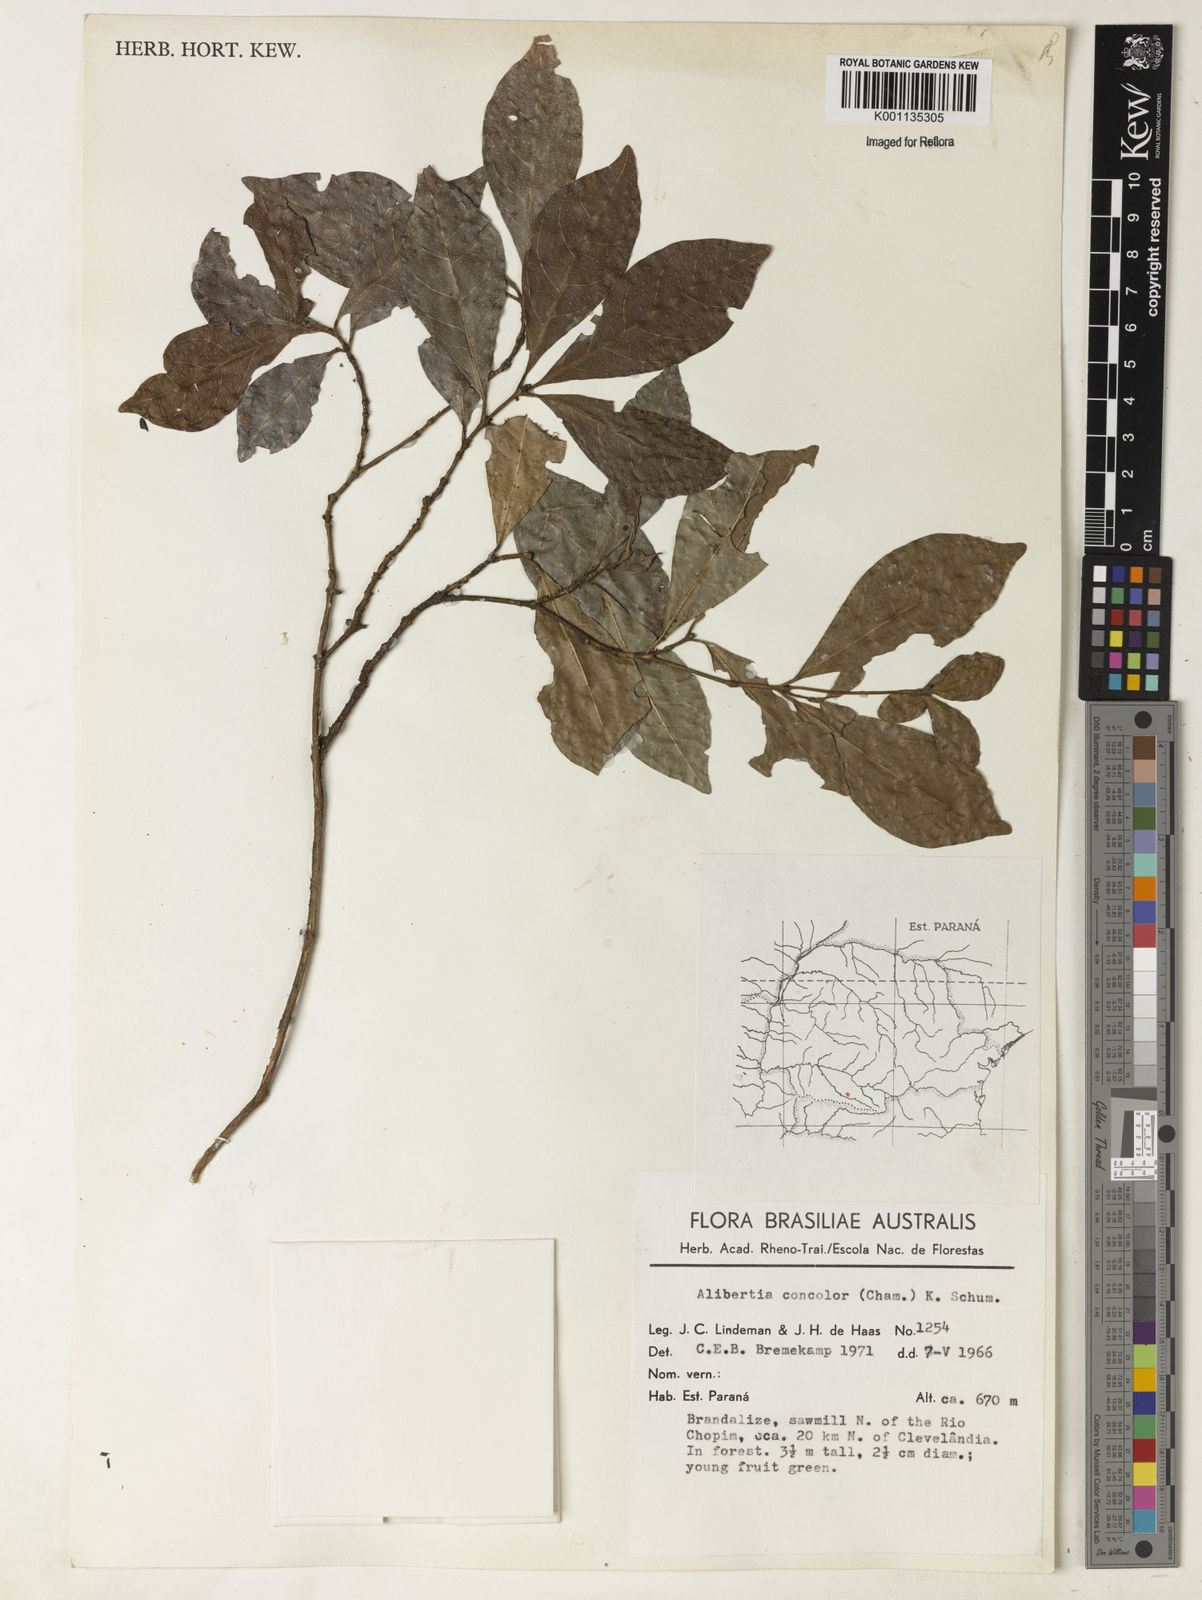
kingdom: Plantae
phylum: Tracheophyta
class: Magnoliopsida
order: Gentianales
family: Rubiaceae
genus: Cordiera
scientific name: Cordiera concolor
